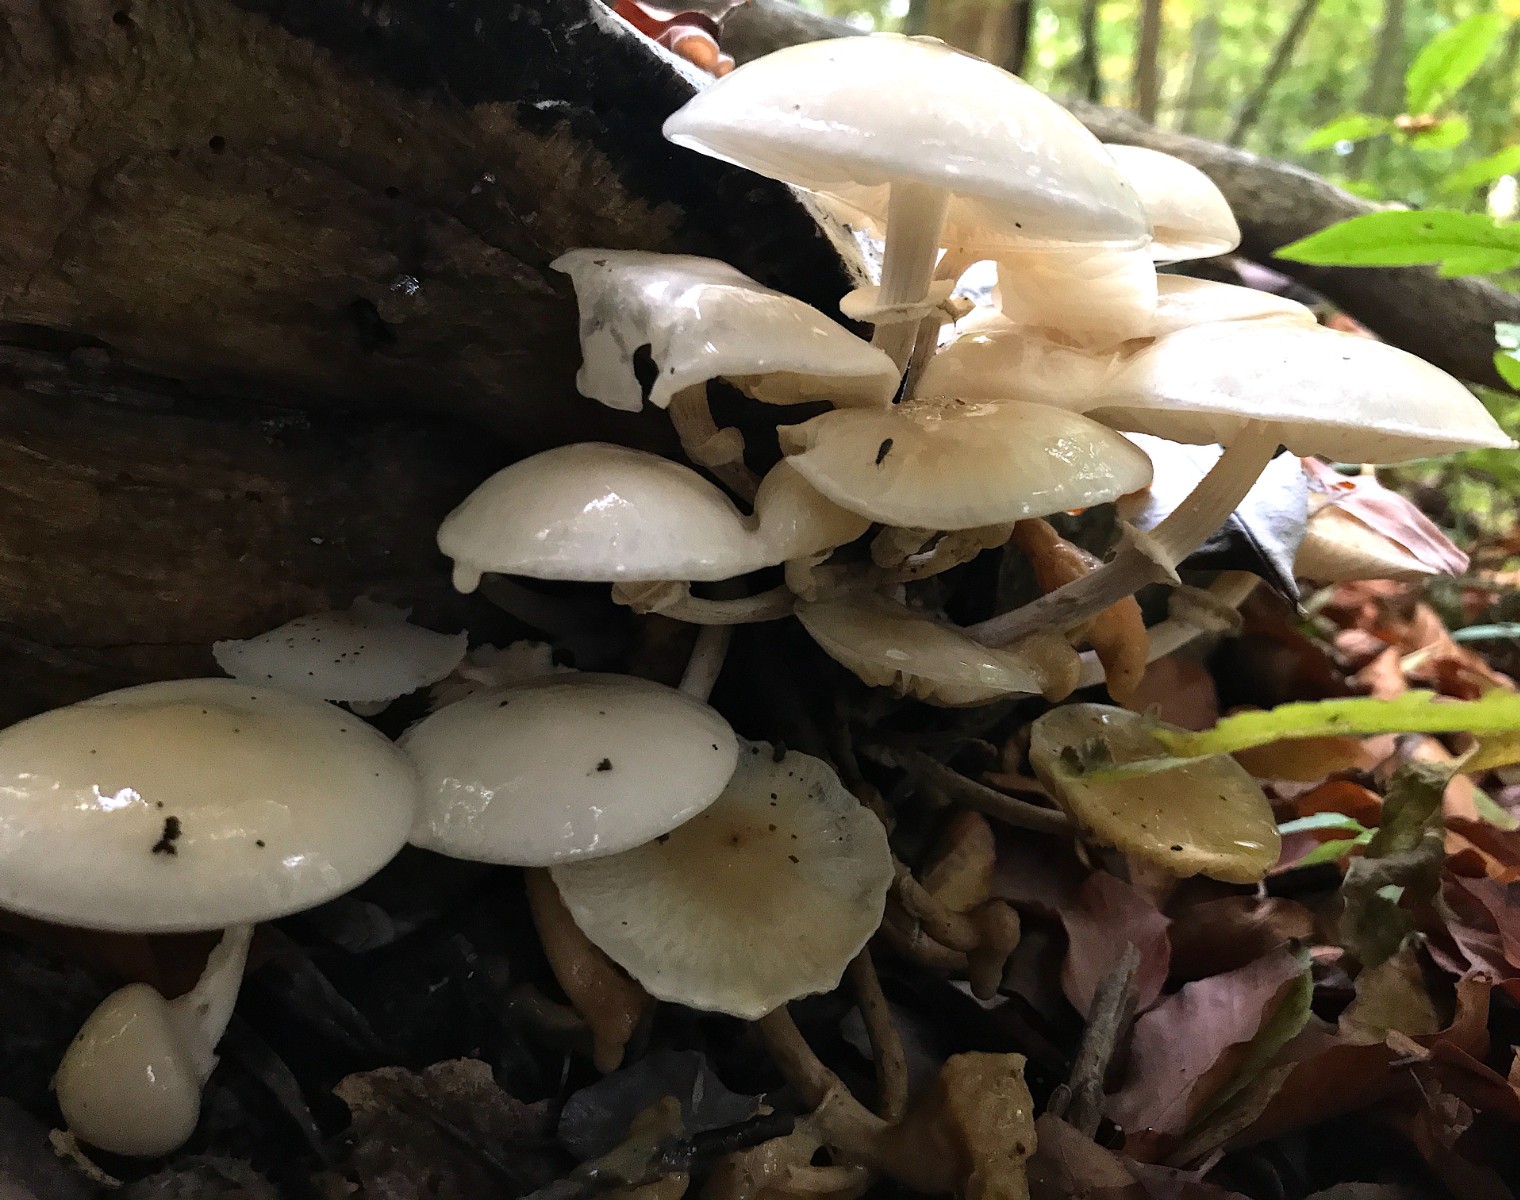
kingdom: Fungi
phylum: Basidiomycota
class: Agaricomycetes
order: Agaricales
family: Physalacriaceae
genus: Mucidula
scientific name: Mucidula mucida
